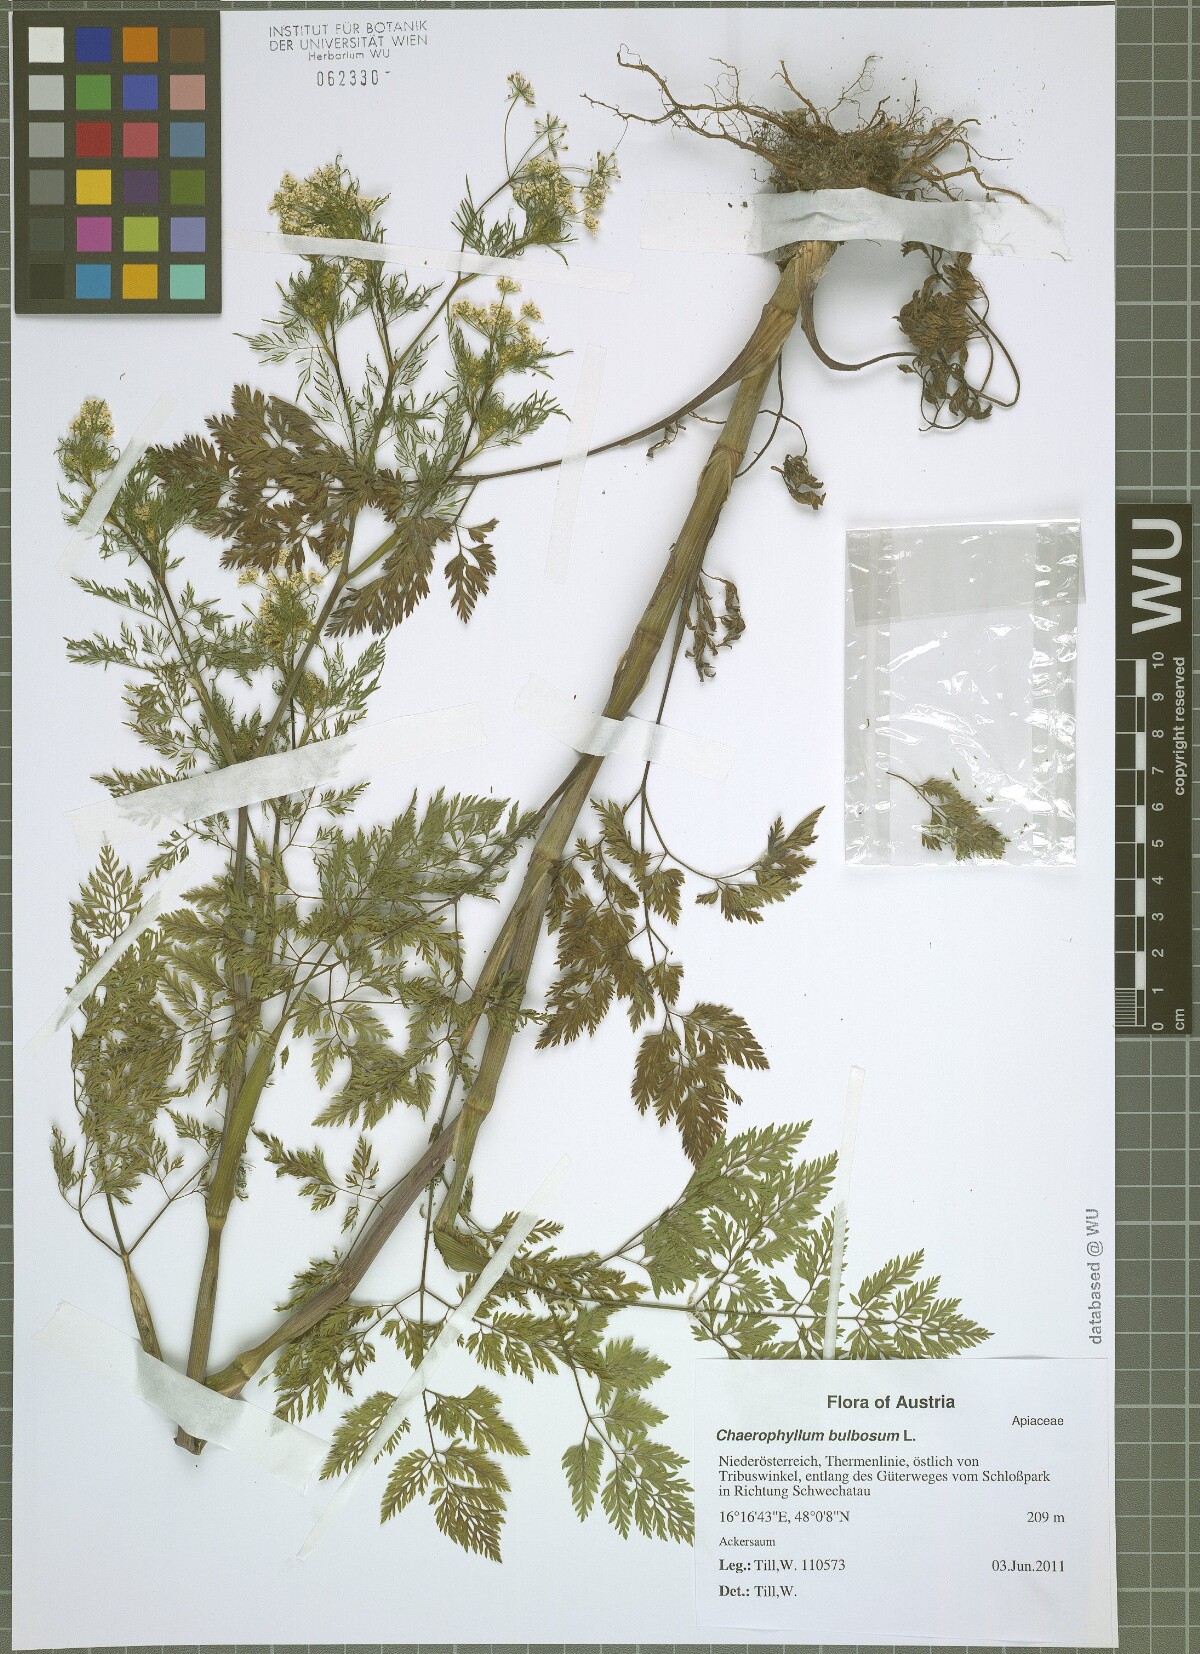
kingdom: Plantae
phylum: Tracheophyta
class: Magnoliopsida
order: Apiales
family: Apiaceae
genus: Chaerophyllum
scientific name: Chaerophyllum bulbosum
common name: Bulbous chervil
